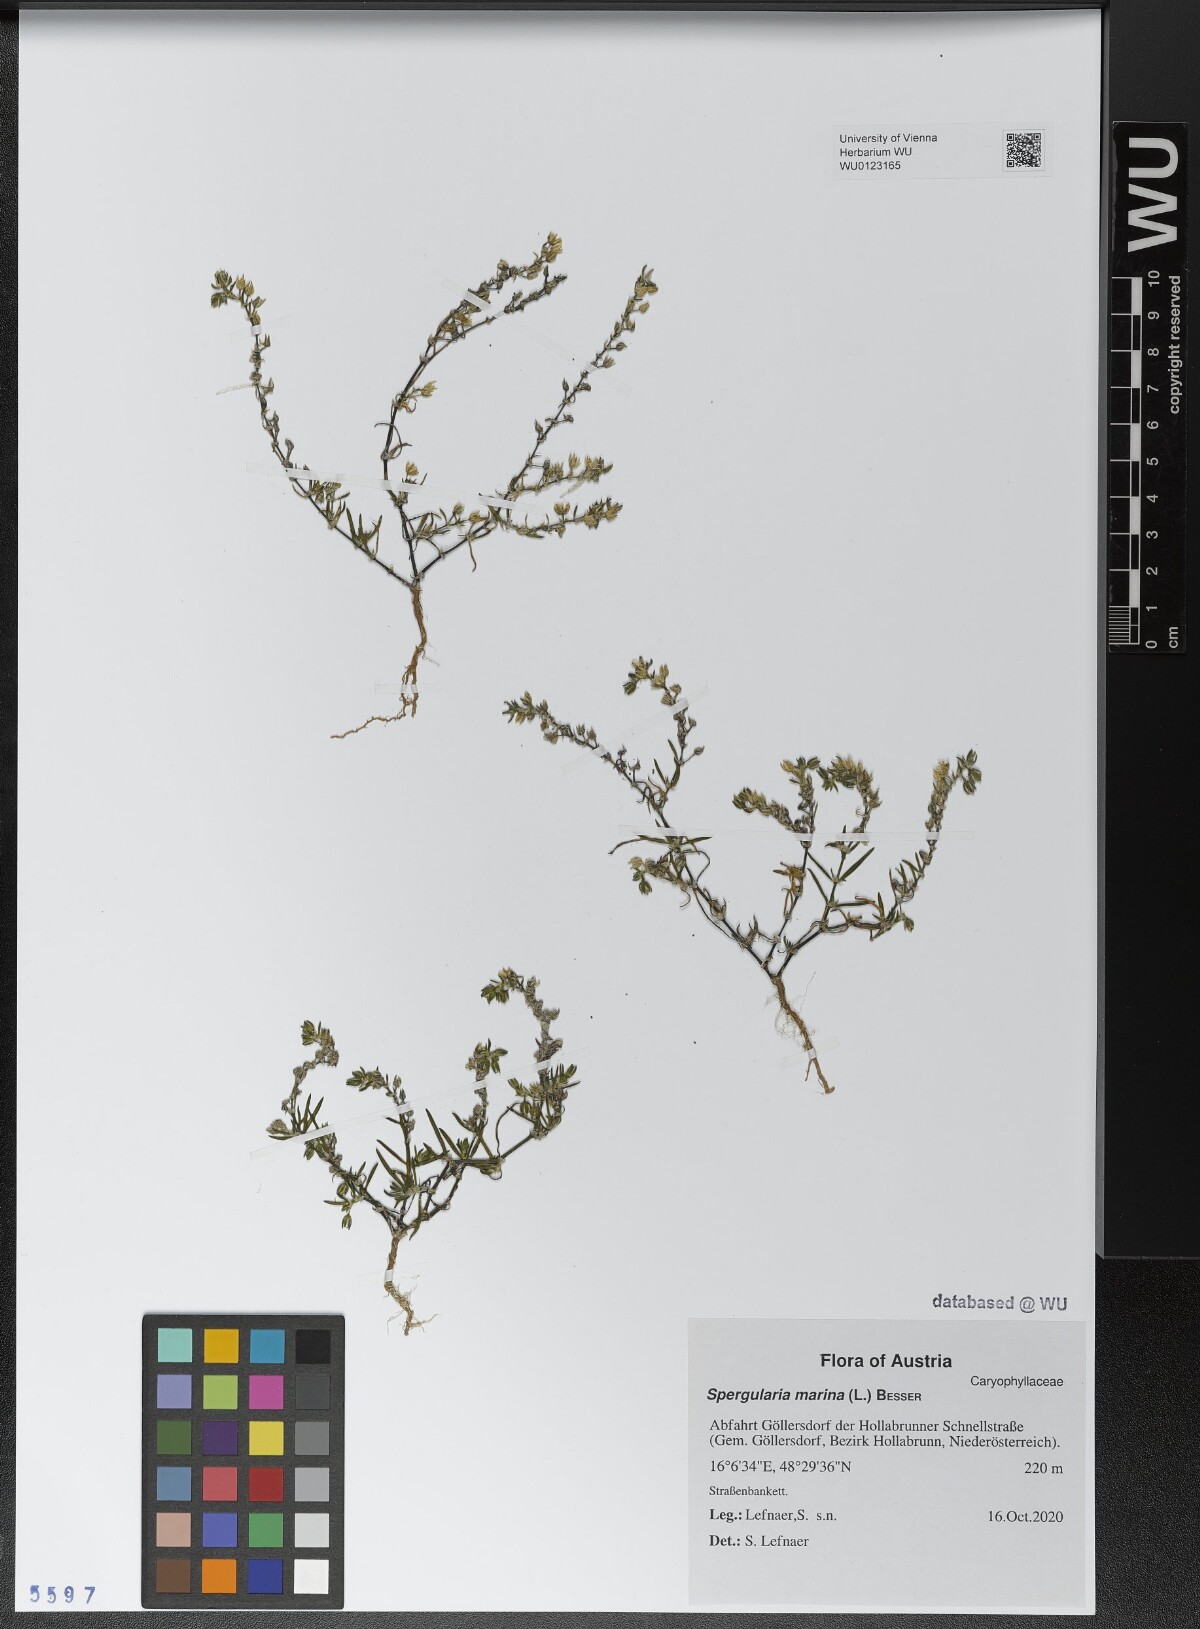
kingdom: Plantae
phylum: Tracheophyta
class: Magnoliopsida
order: Caryophyllales
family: Caryophyllaceae
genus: Spergularia
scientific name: Spergularia marina
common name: Lesser sea-spurrey
